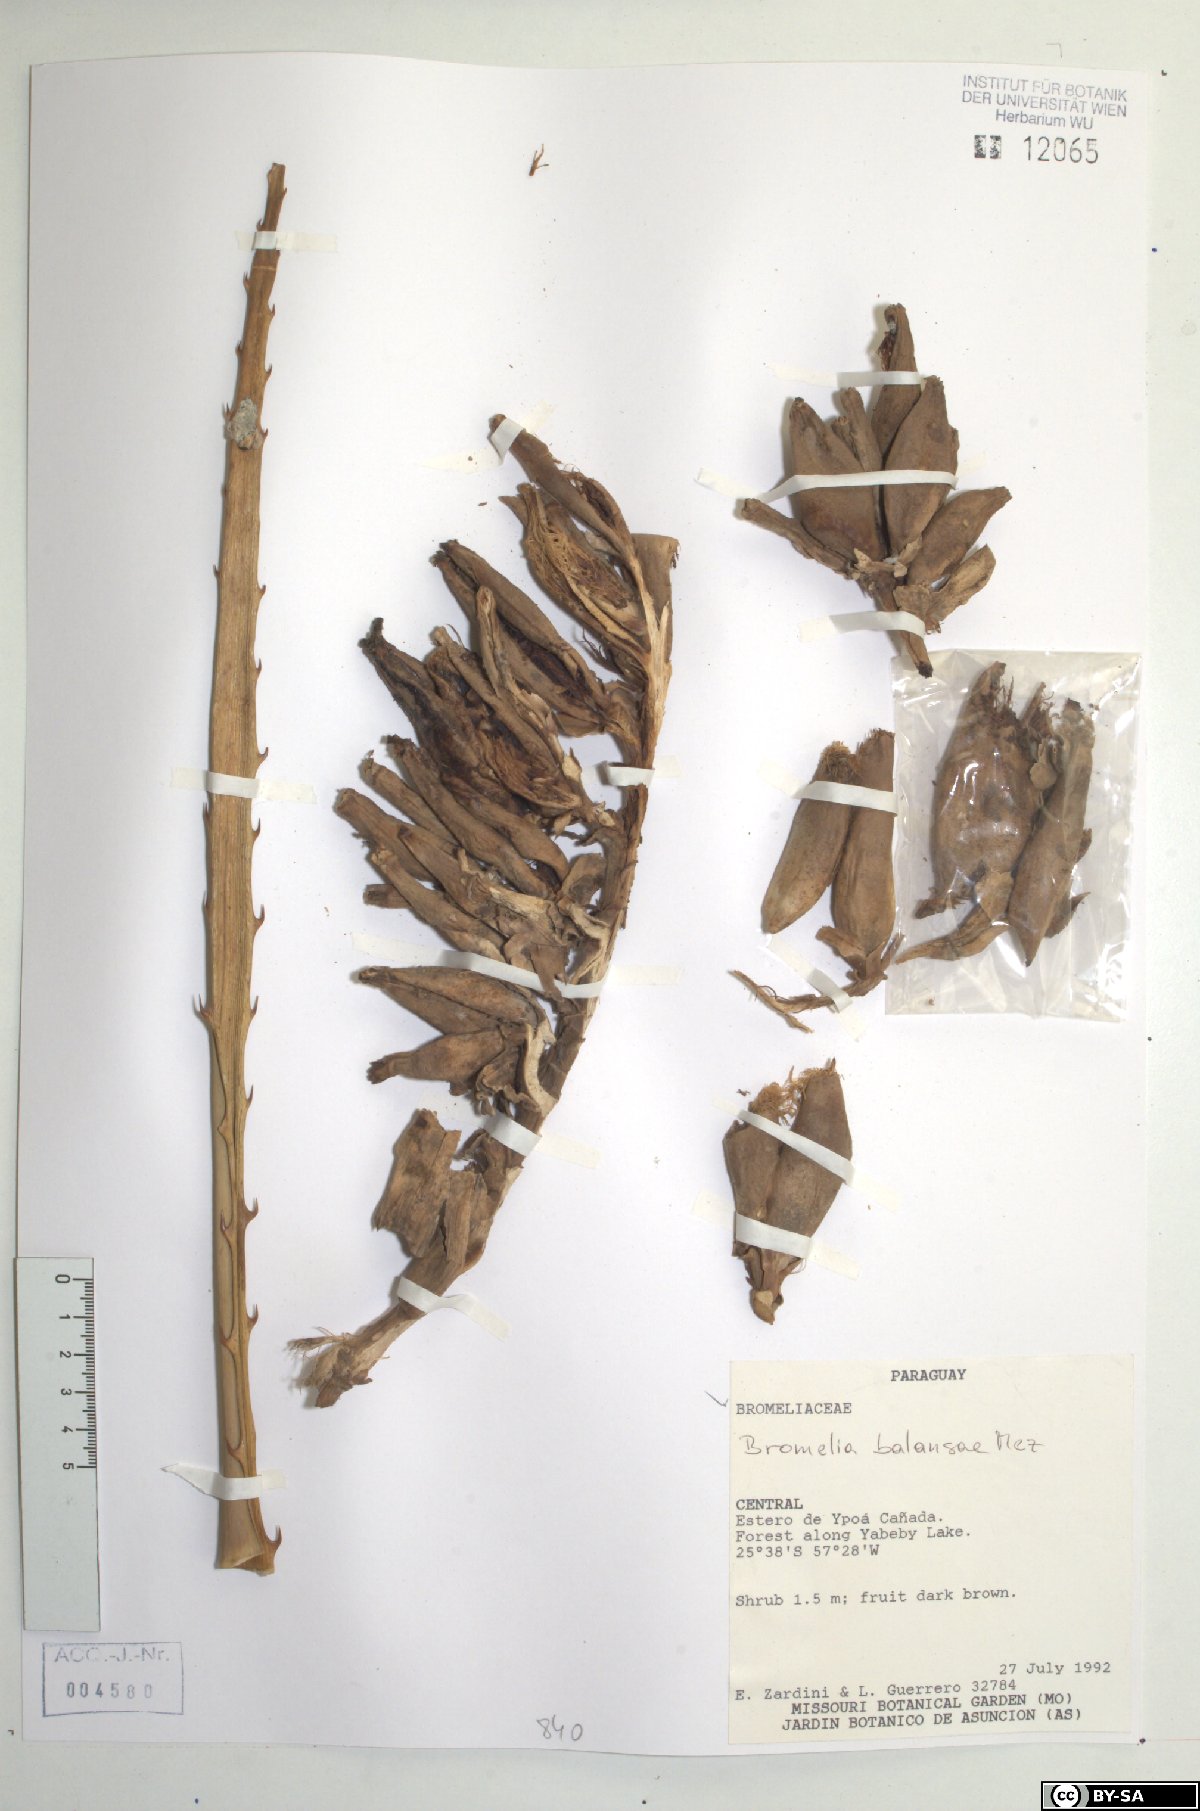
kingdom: Plantae
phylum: Tracheophyta
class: Liliopsida
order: Poales
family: Bromeliaceae
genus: Bromelia
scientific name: Bromelia balansae
